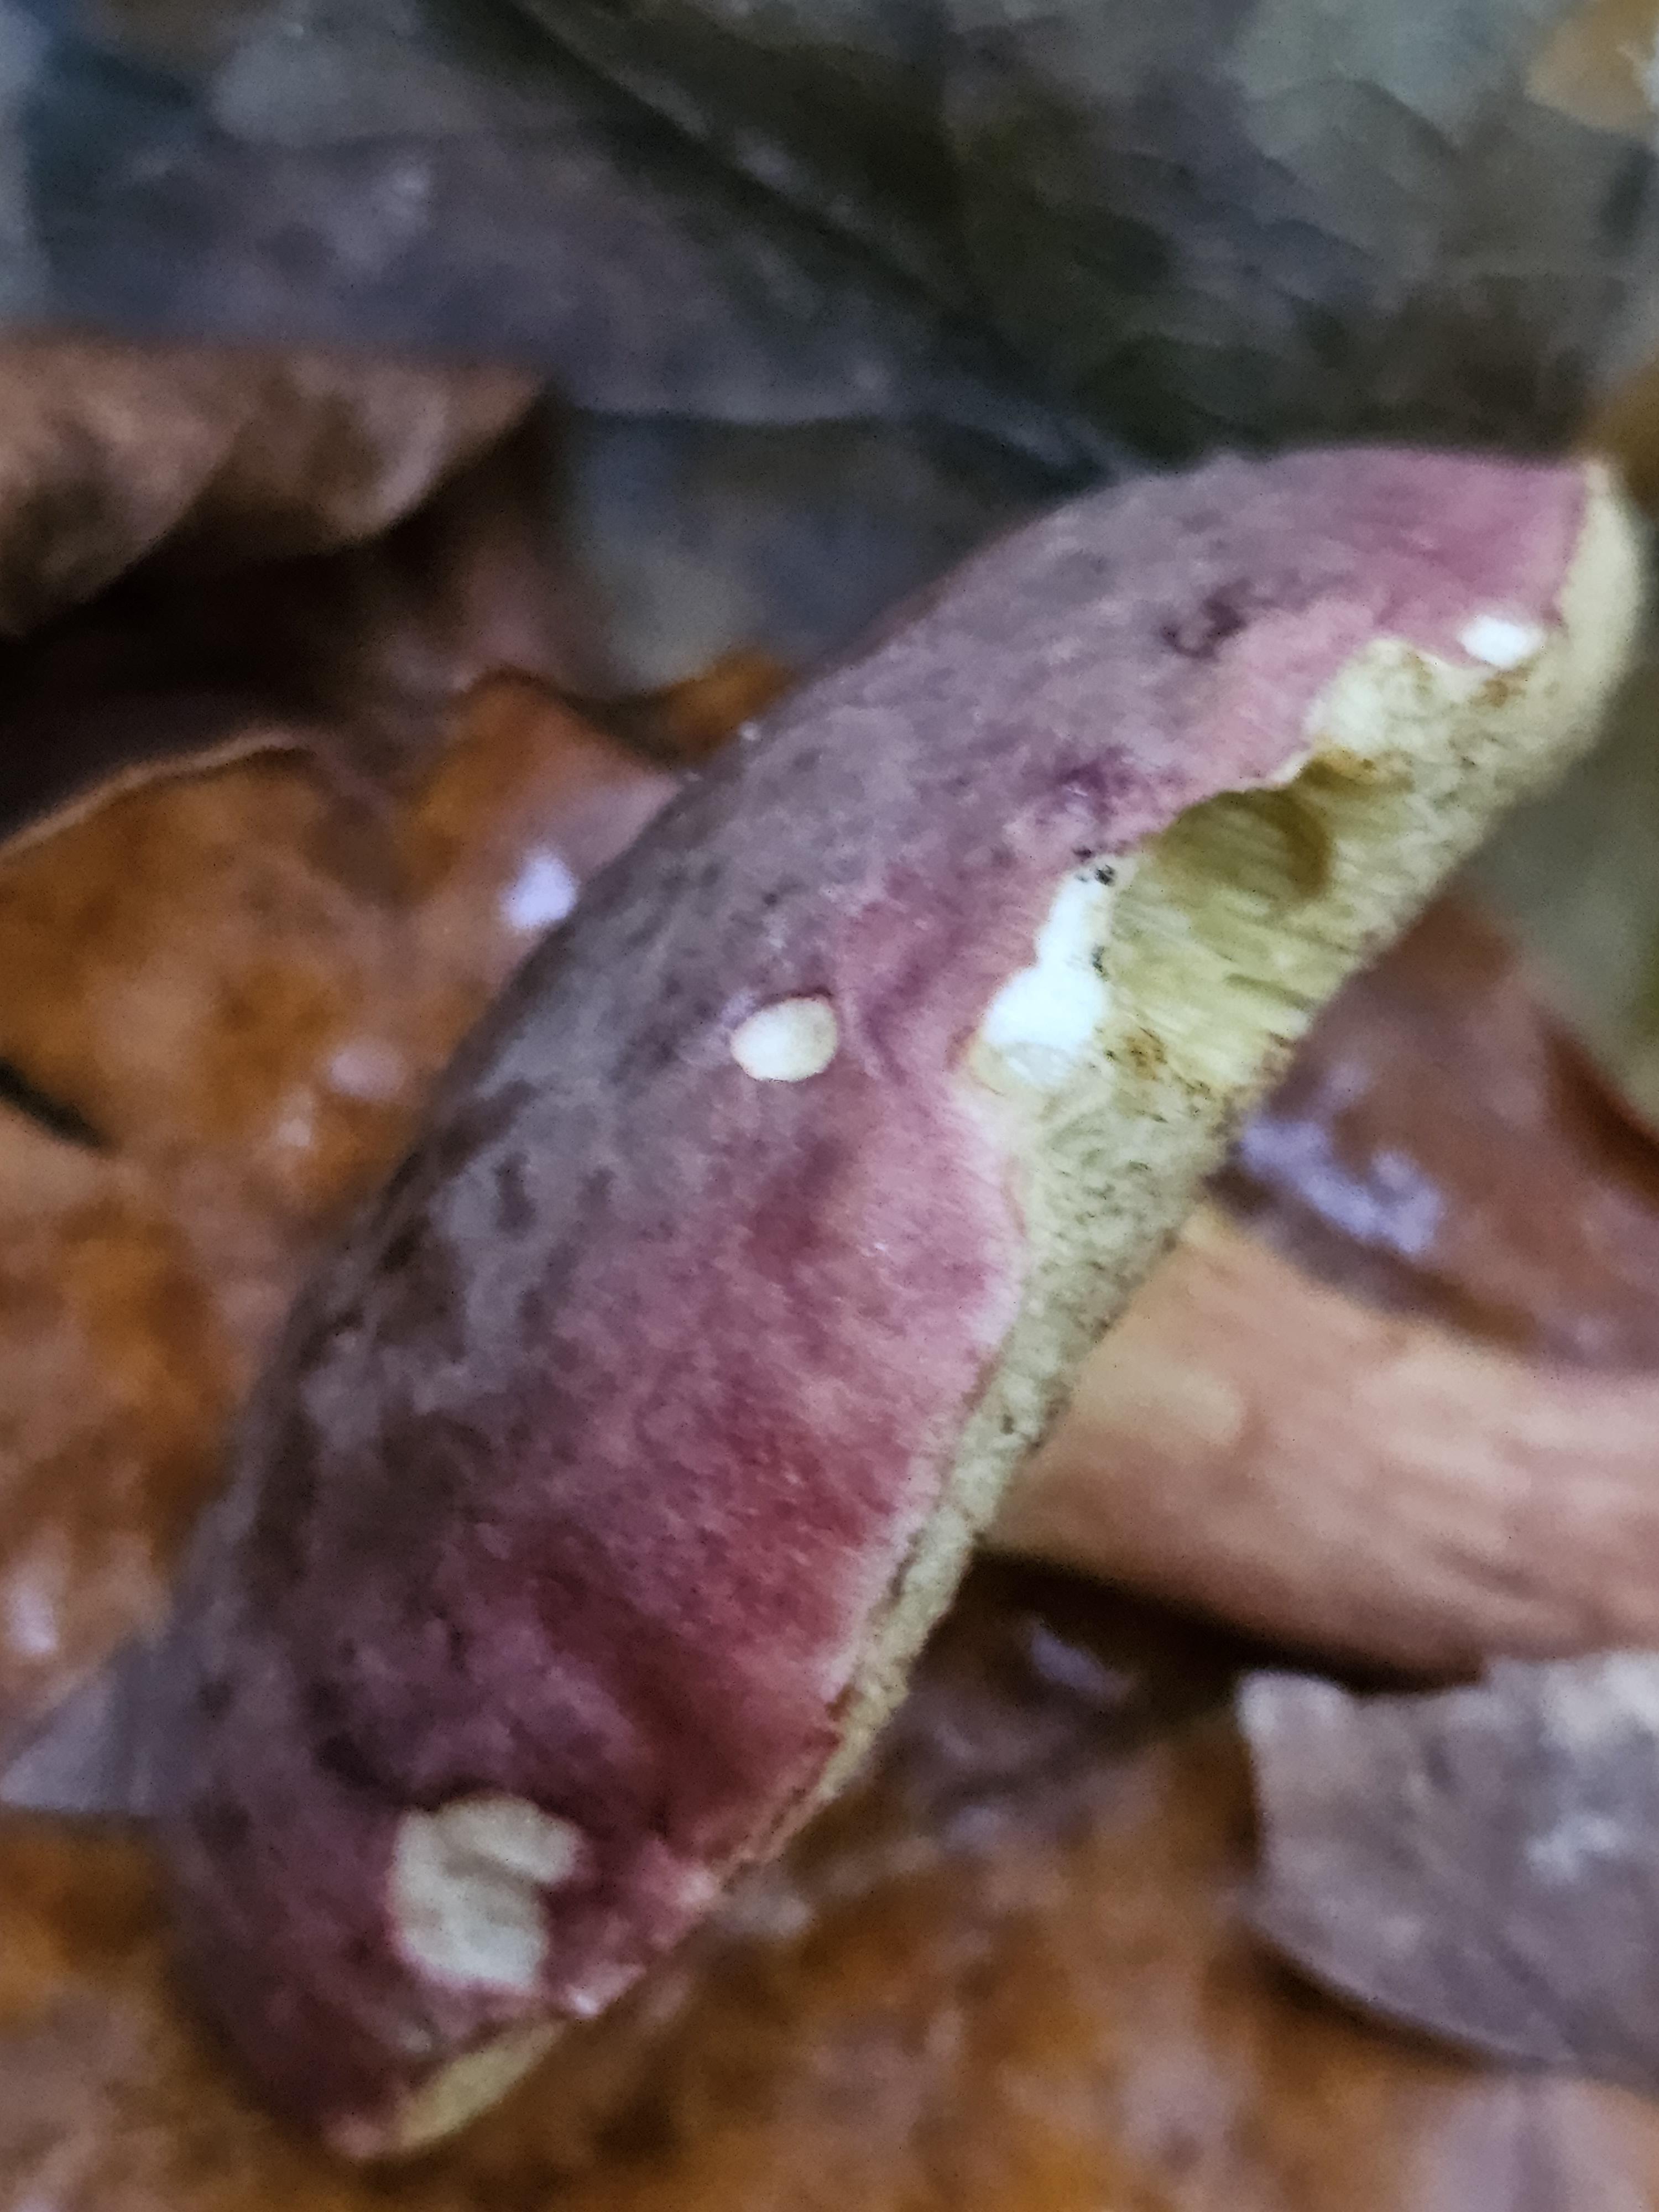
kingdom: Fungi
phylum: Basidiomycota
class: Agaricomycetes
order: Boletales
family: Boletaceae
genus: Xerocomellus
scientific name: Xerocomellus pruinatus
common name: dugget rørhat
